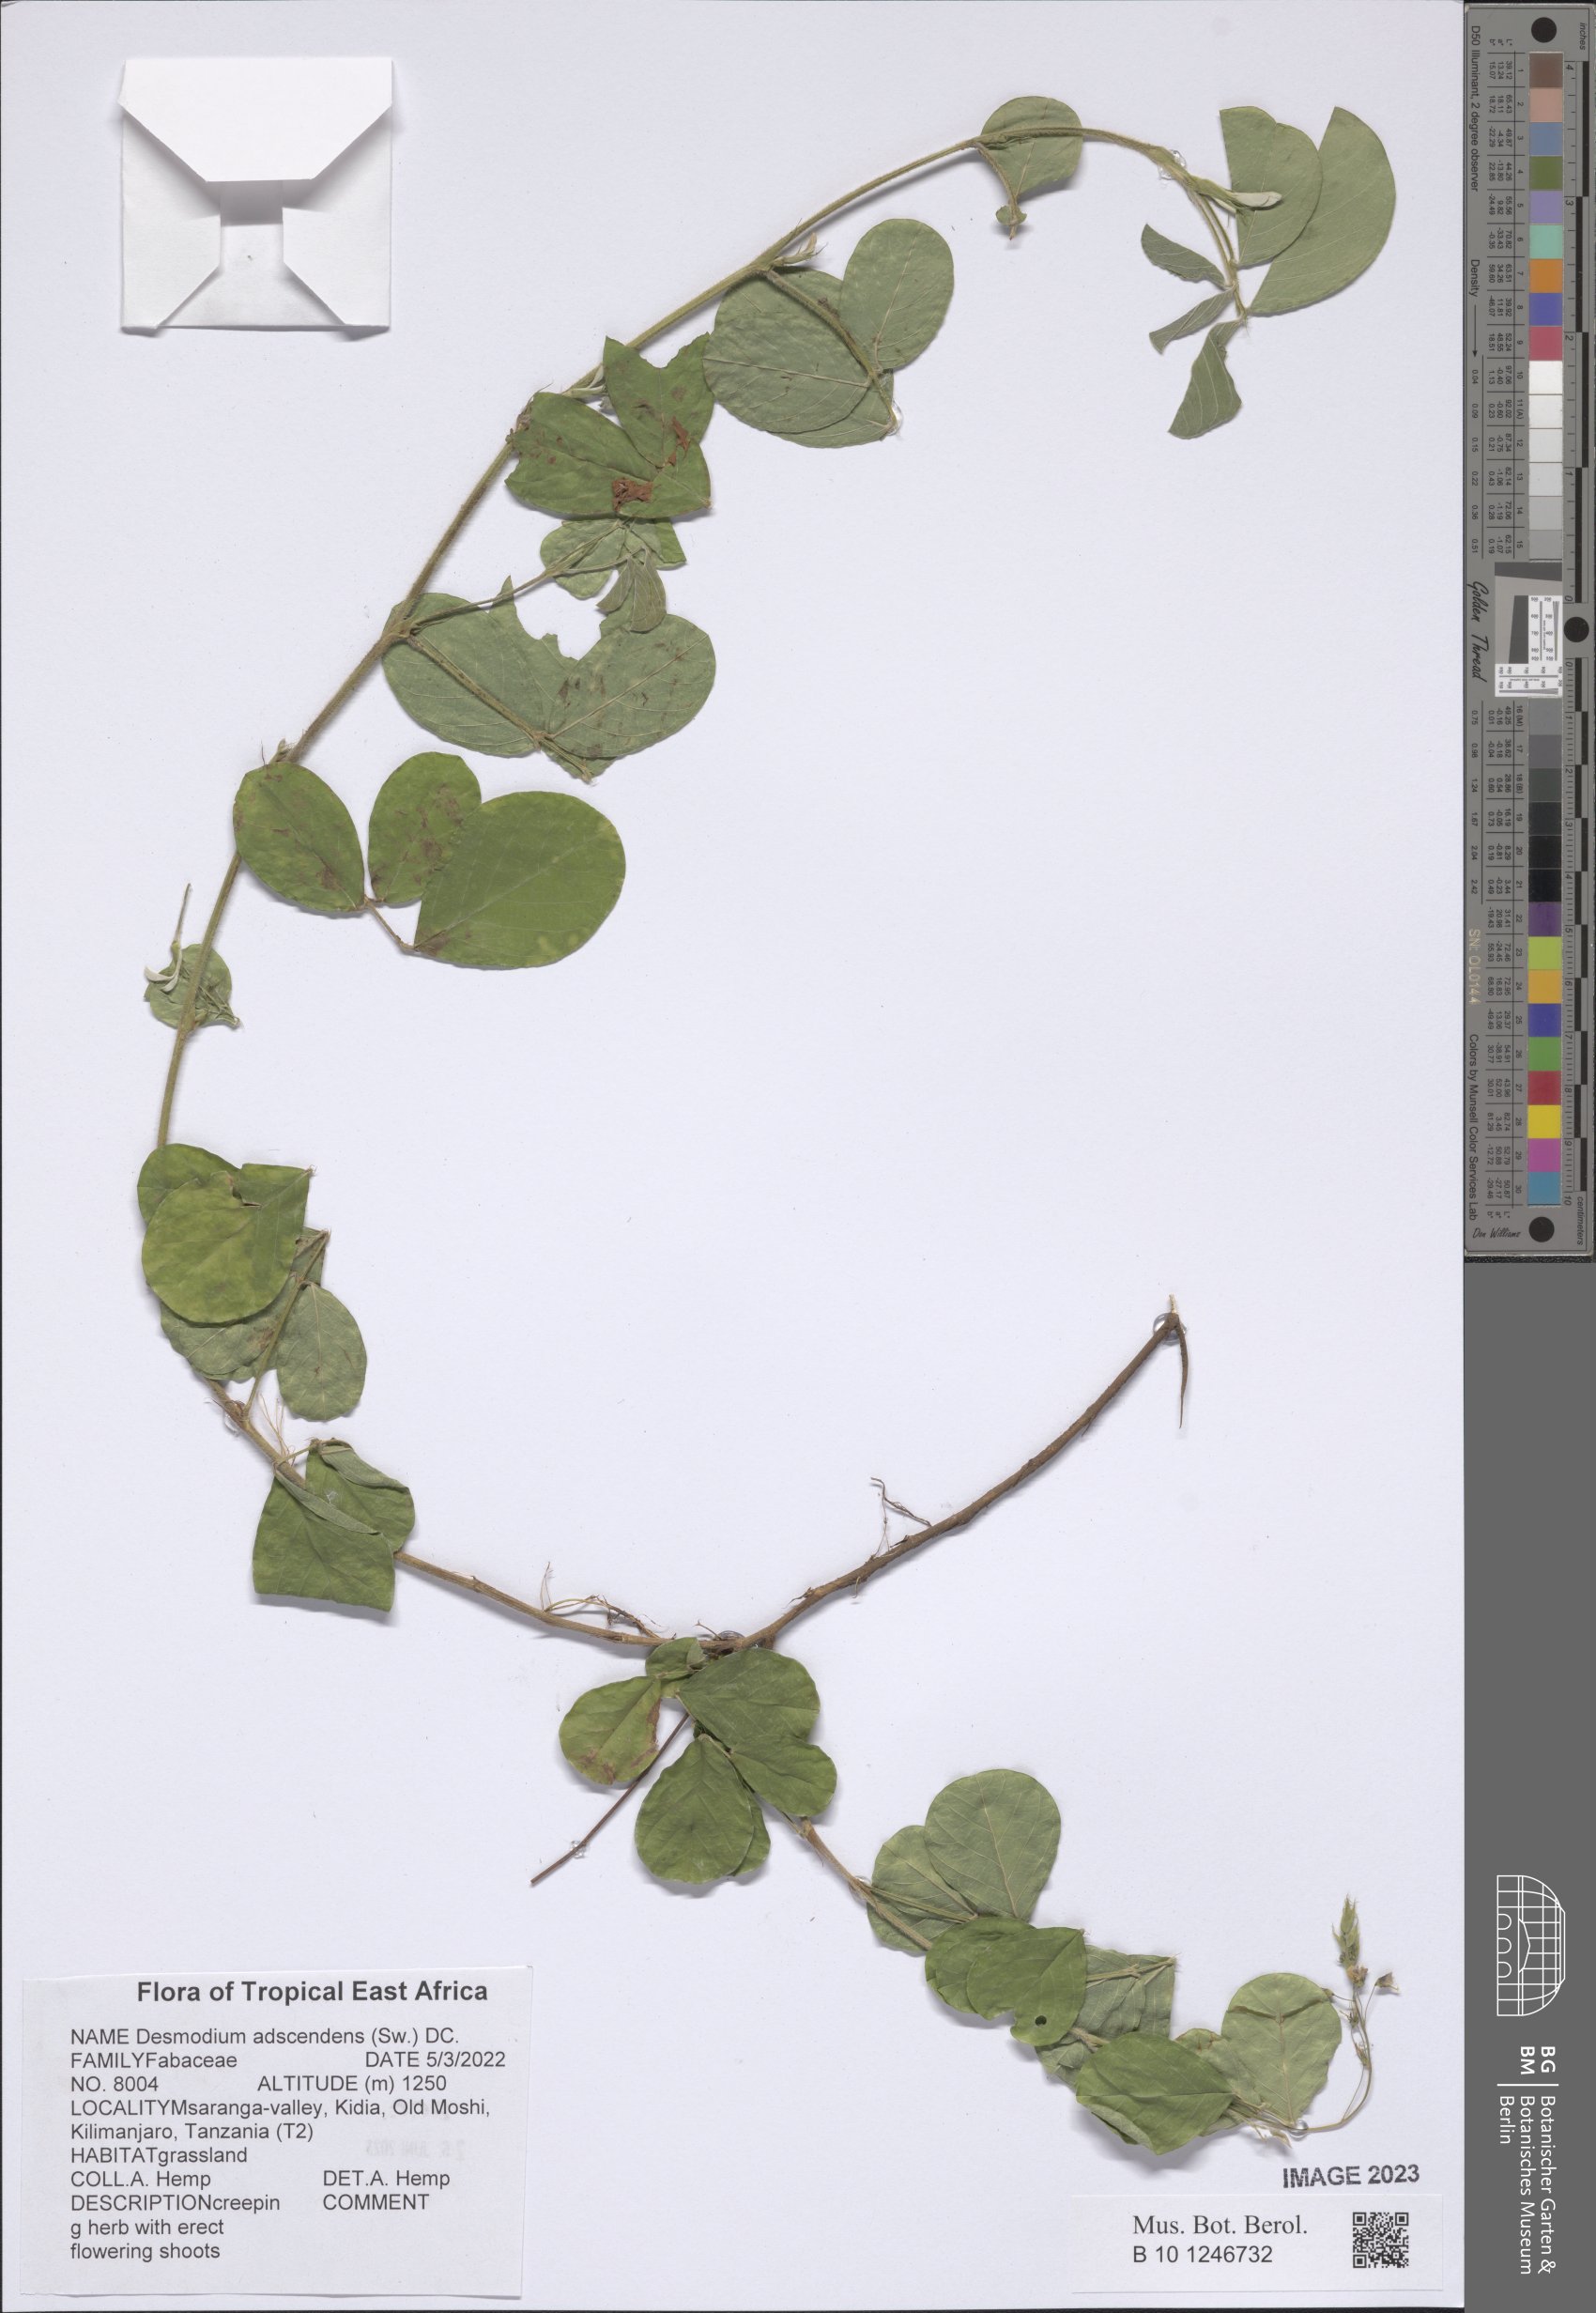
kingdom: Plantae
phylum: Tracheophyta
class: Magnoliopsida
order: Fabales
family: Fabaceae
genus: Grona
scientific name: Grona adscendens
